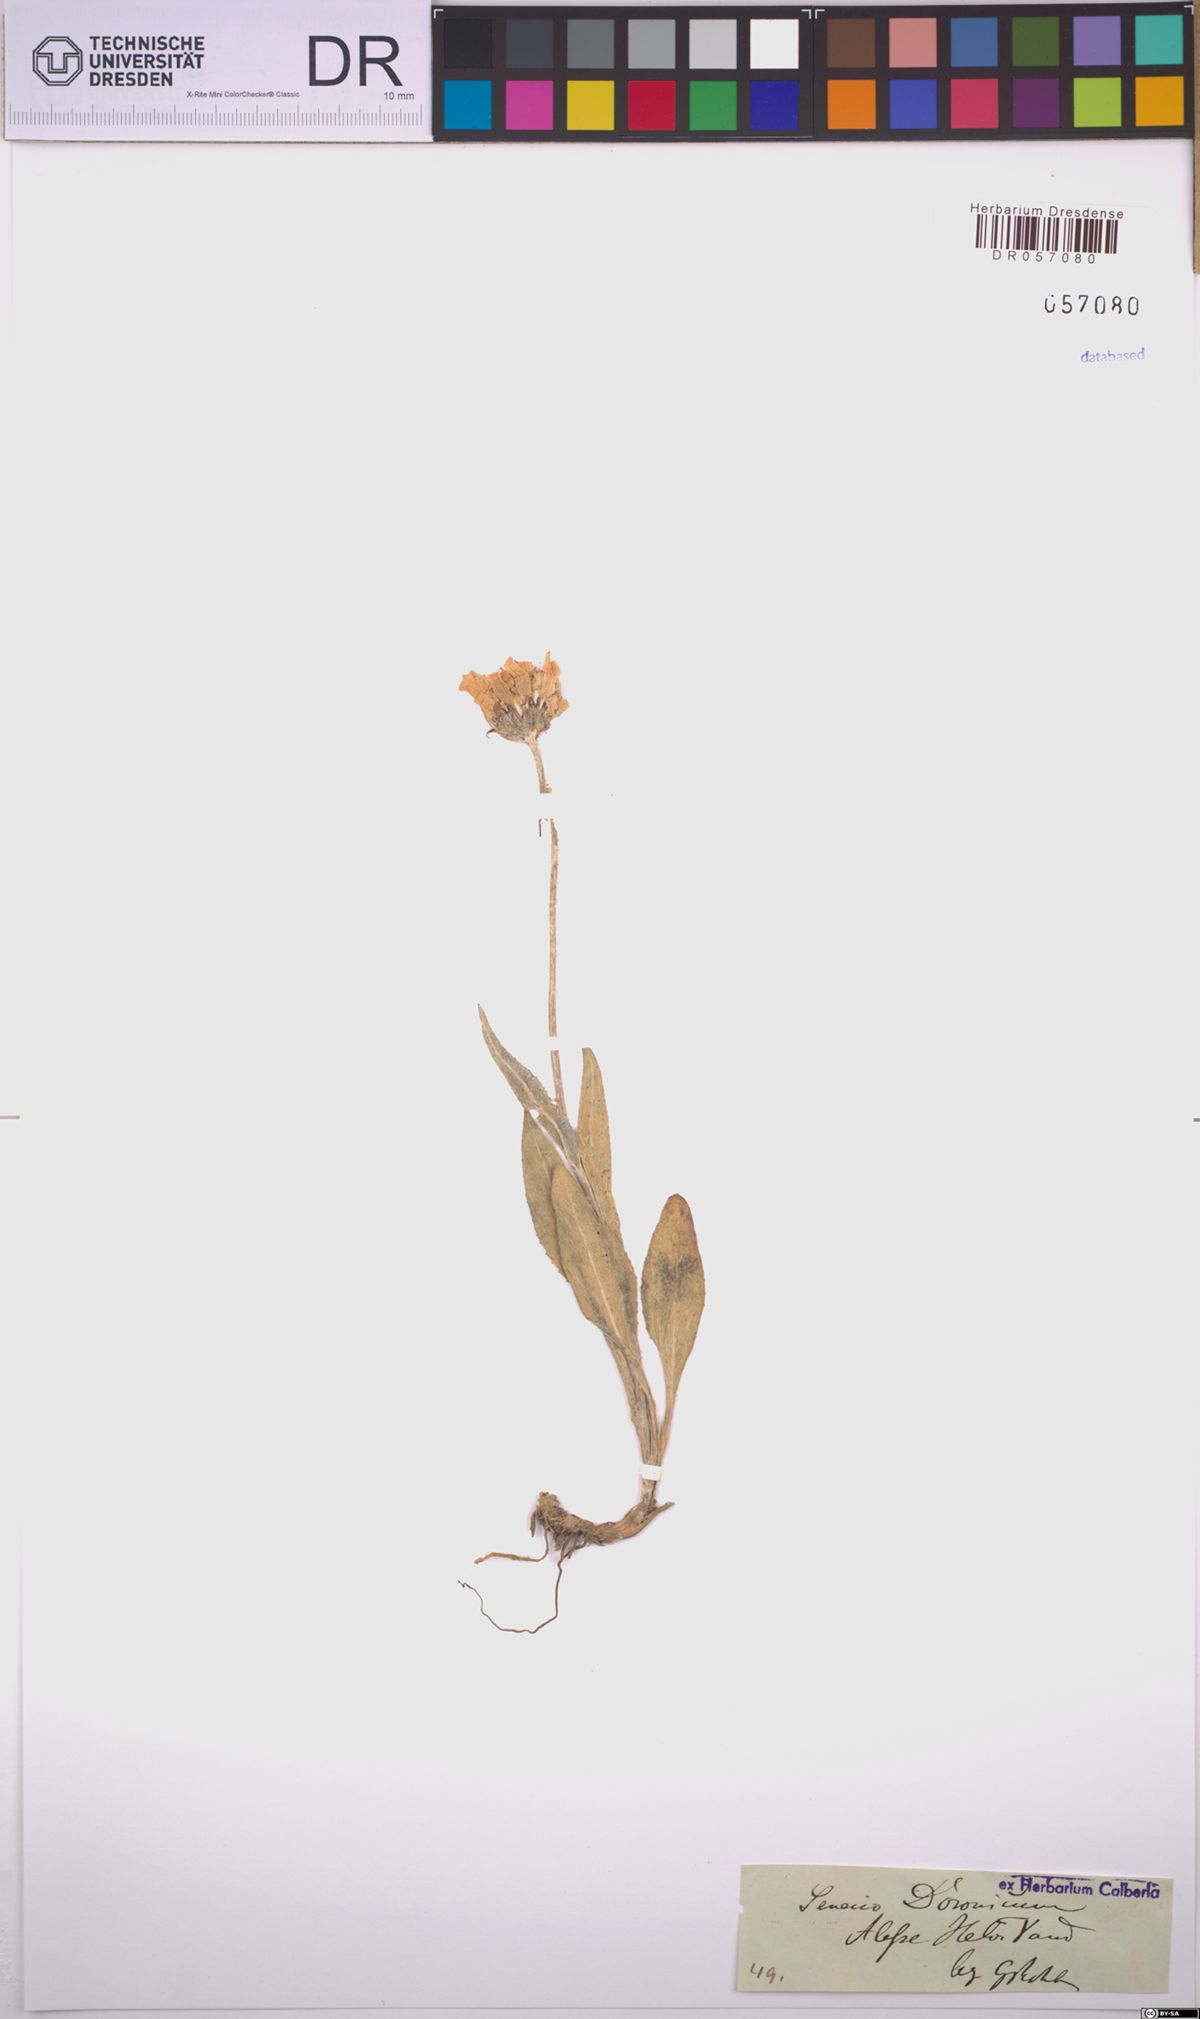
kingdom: Plantae
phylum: Tracheophyta
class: Magnoliopsida
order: Asterales
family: Asteraceae
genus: Senecio
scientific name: Senecio doronicum
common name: Chamois ragwort
